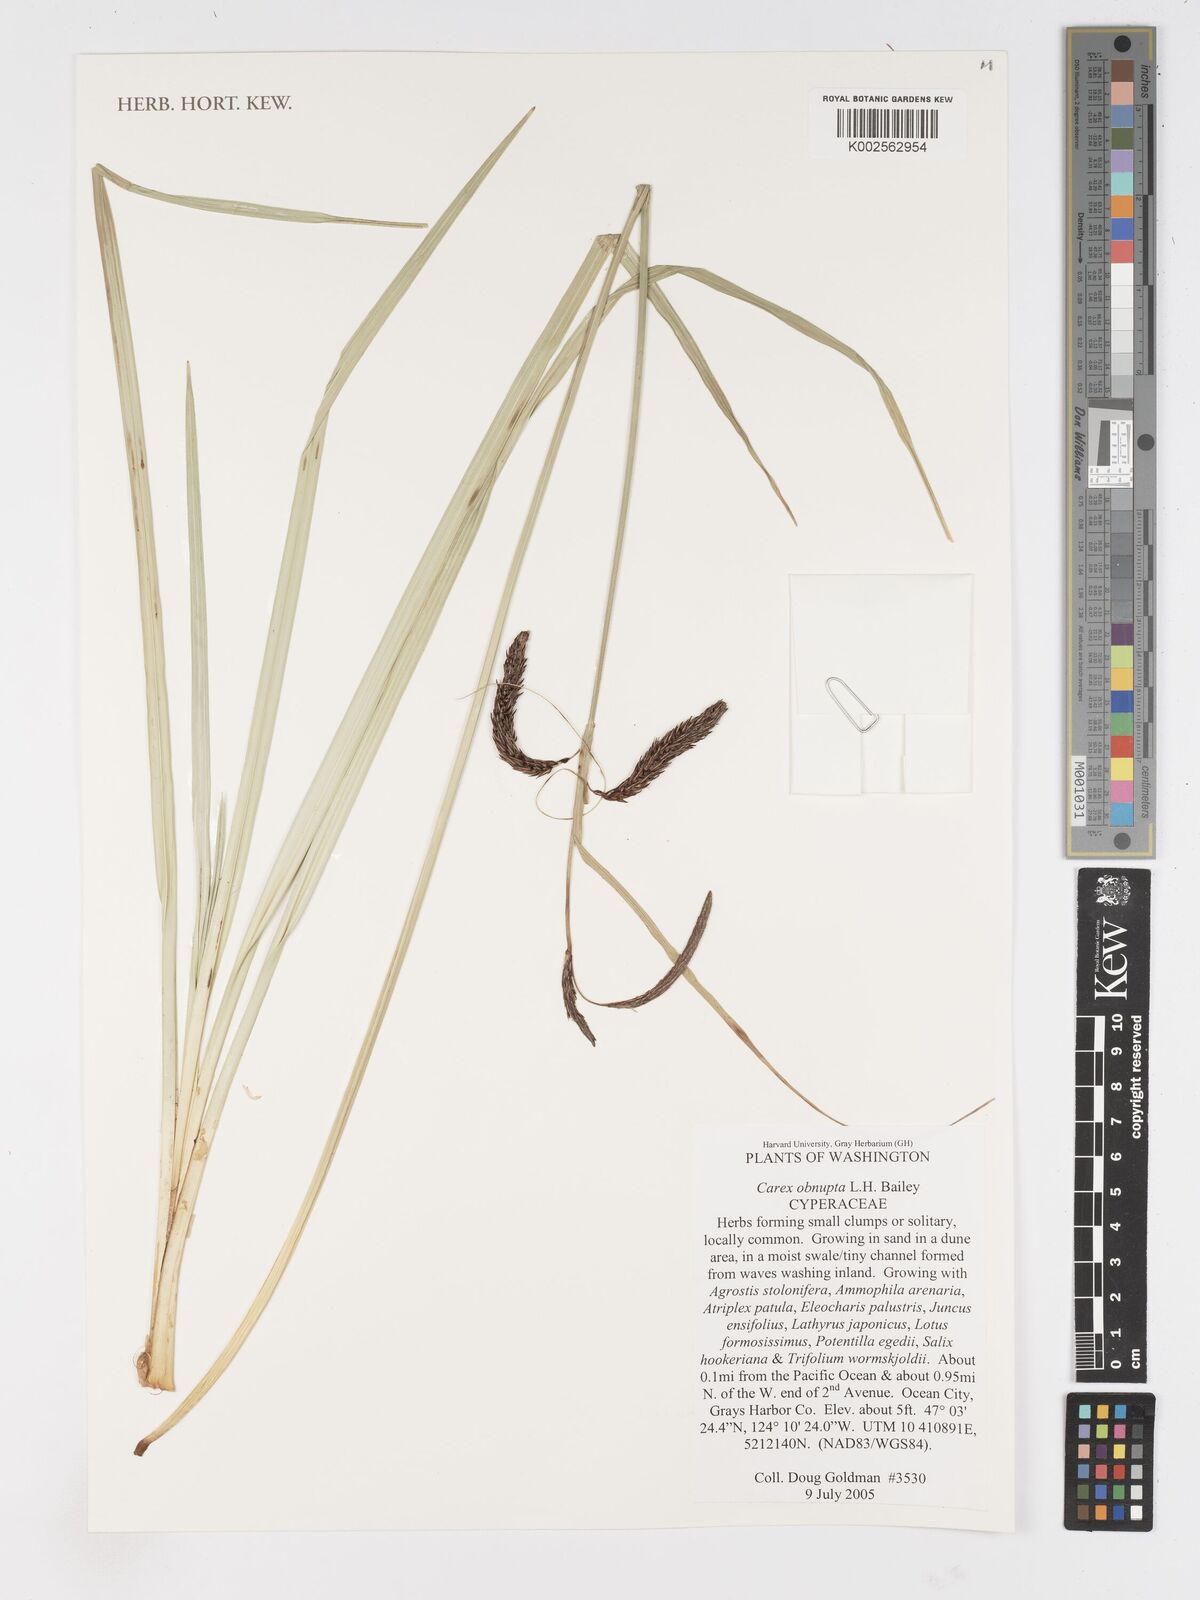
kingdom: Plantae
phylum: Tracheophyta
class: Liliopsida
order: Poales
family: Cyperaceae
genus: Carex
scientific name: Carex obnupta
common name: Slough sedge
